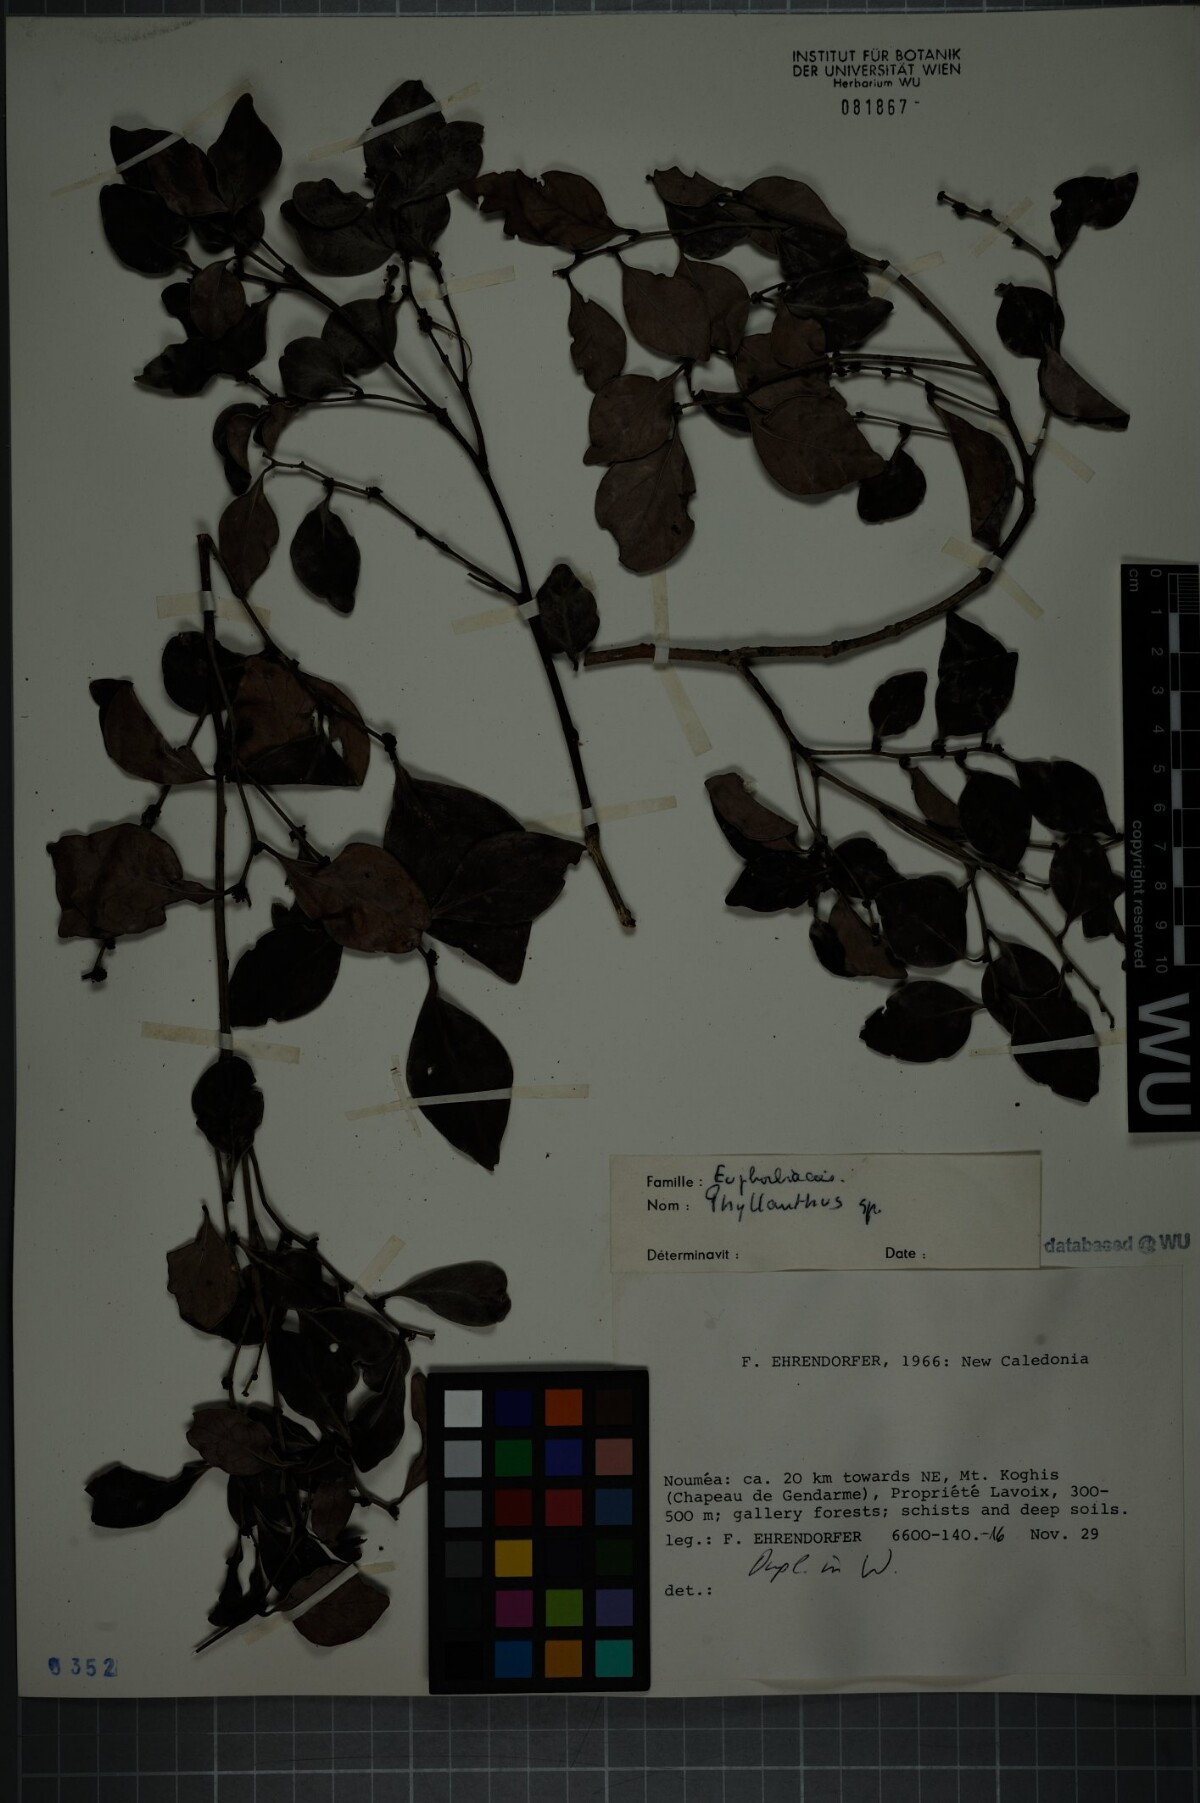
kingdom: Plantae
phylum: Tracheophyta
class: Magnoliopsida
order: Malpighiales
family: Phyllanthaceae
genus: Phyllanthus
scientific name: Phyllanthus
